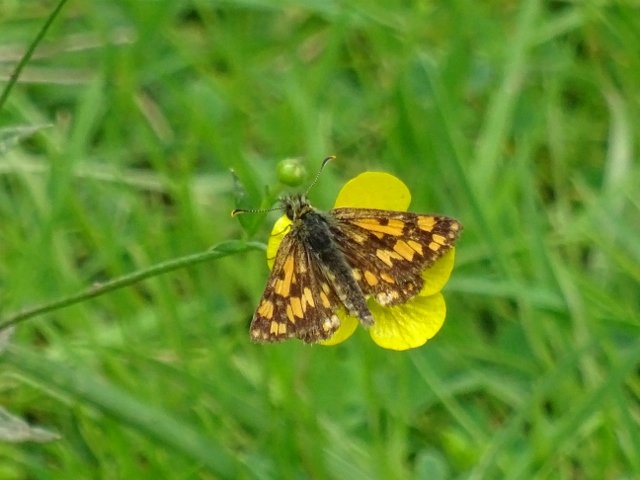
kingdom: Animalia
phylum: Arthropoda
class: Insecta
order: Lepidoptera
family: Hesperiidae
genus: Carterocephalus
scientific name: Carterocephalus palaemon
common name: Chequered Skipper
